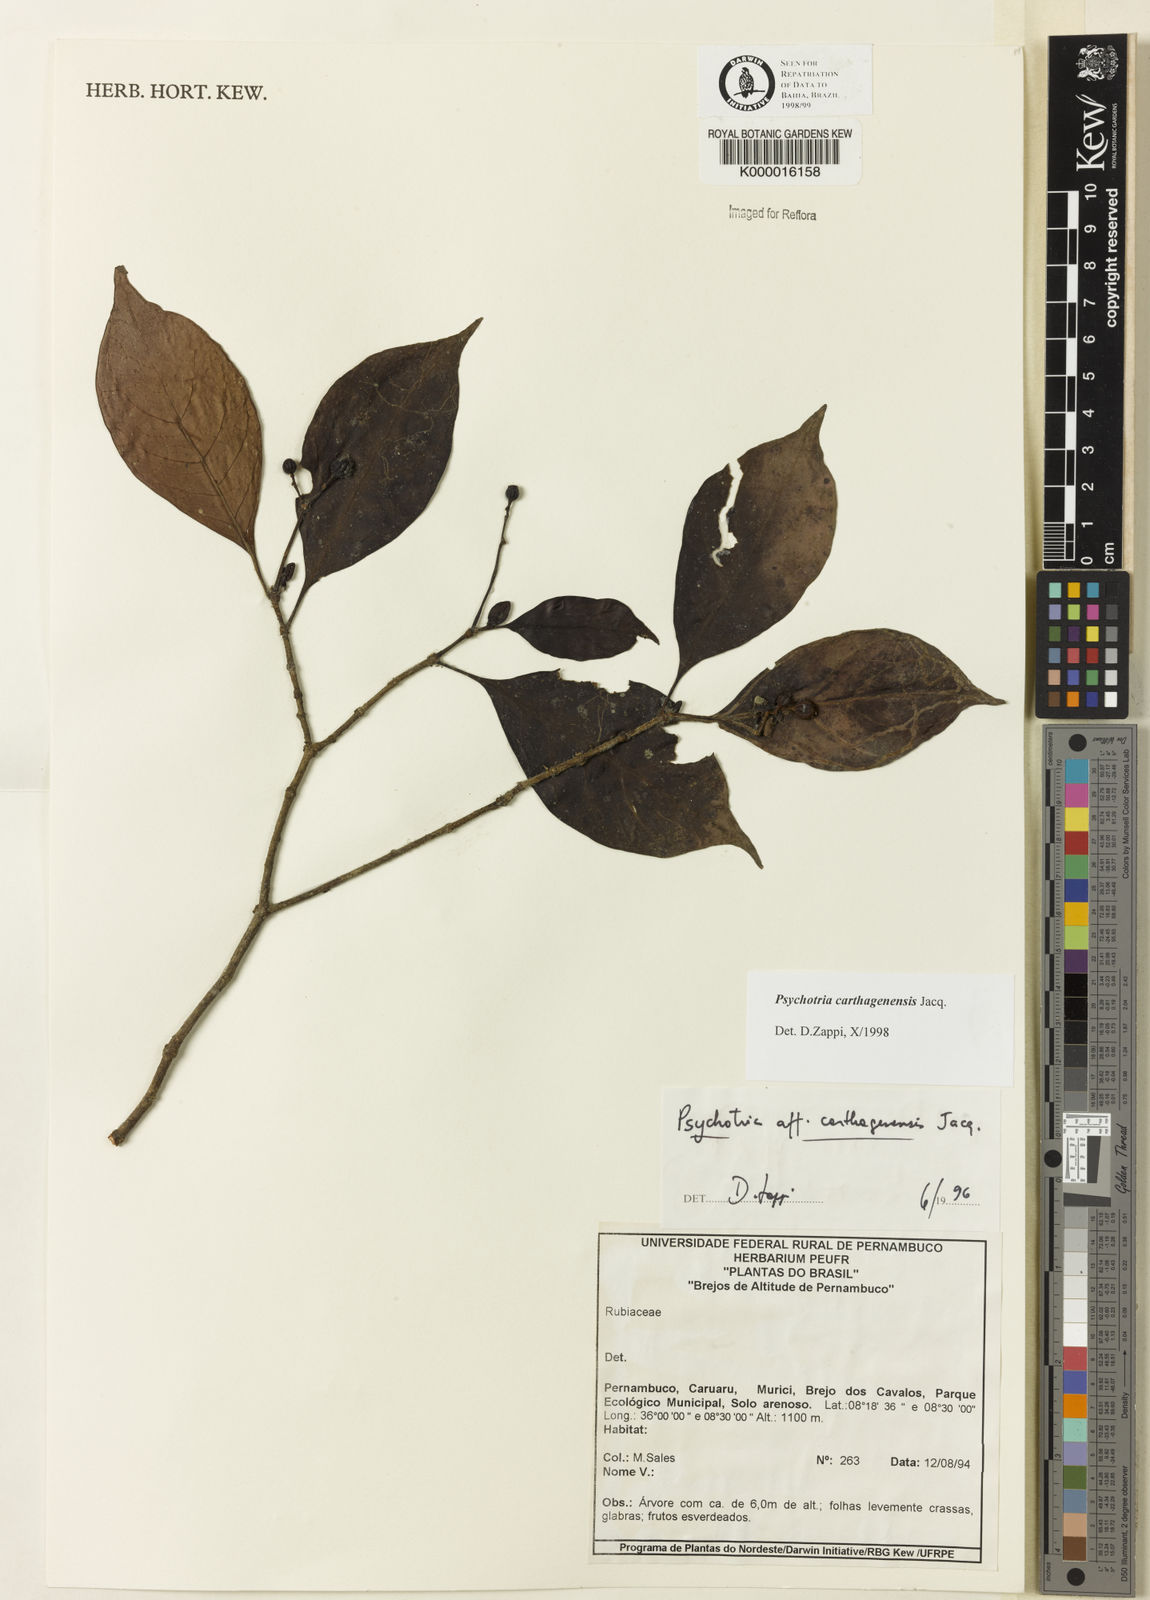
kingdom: Plantae
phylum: Tracheophyta
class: Magnoliopsida
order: Gentianales
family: Rubiaceae
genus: Psychotria
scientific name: Psychotria carthagenensis
